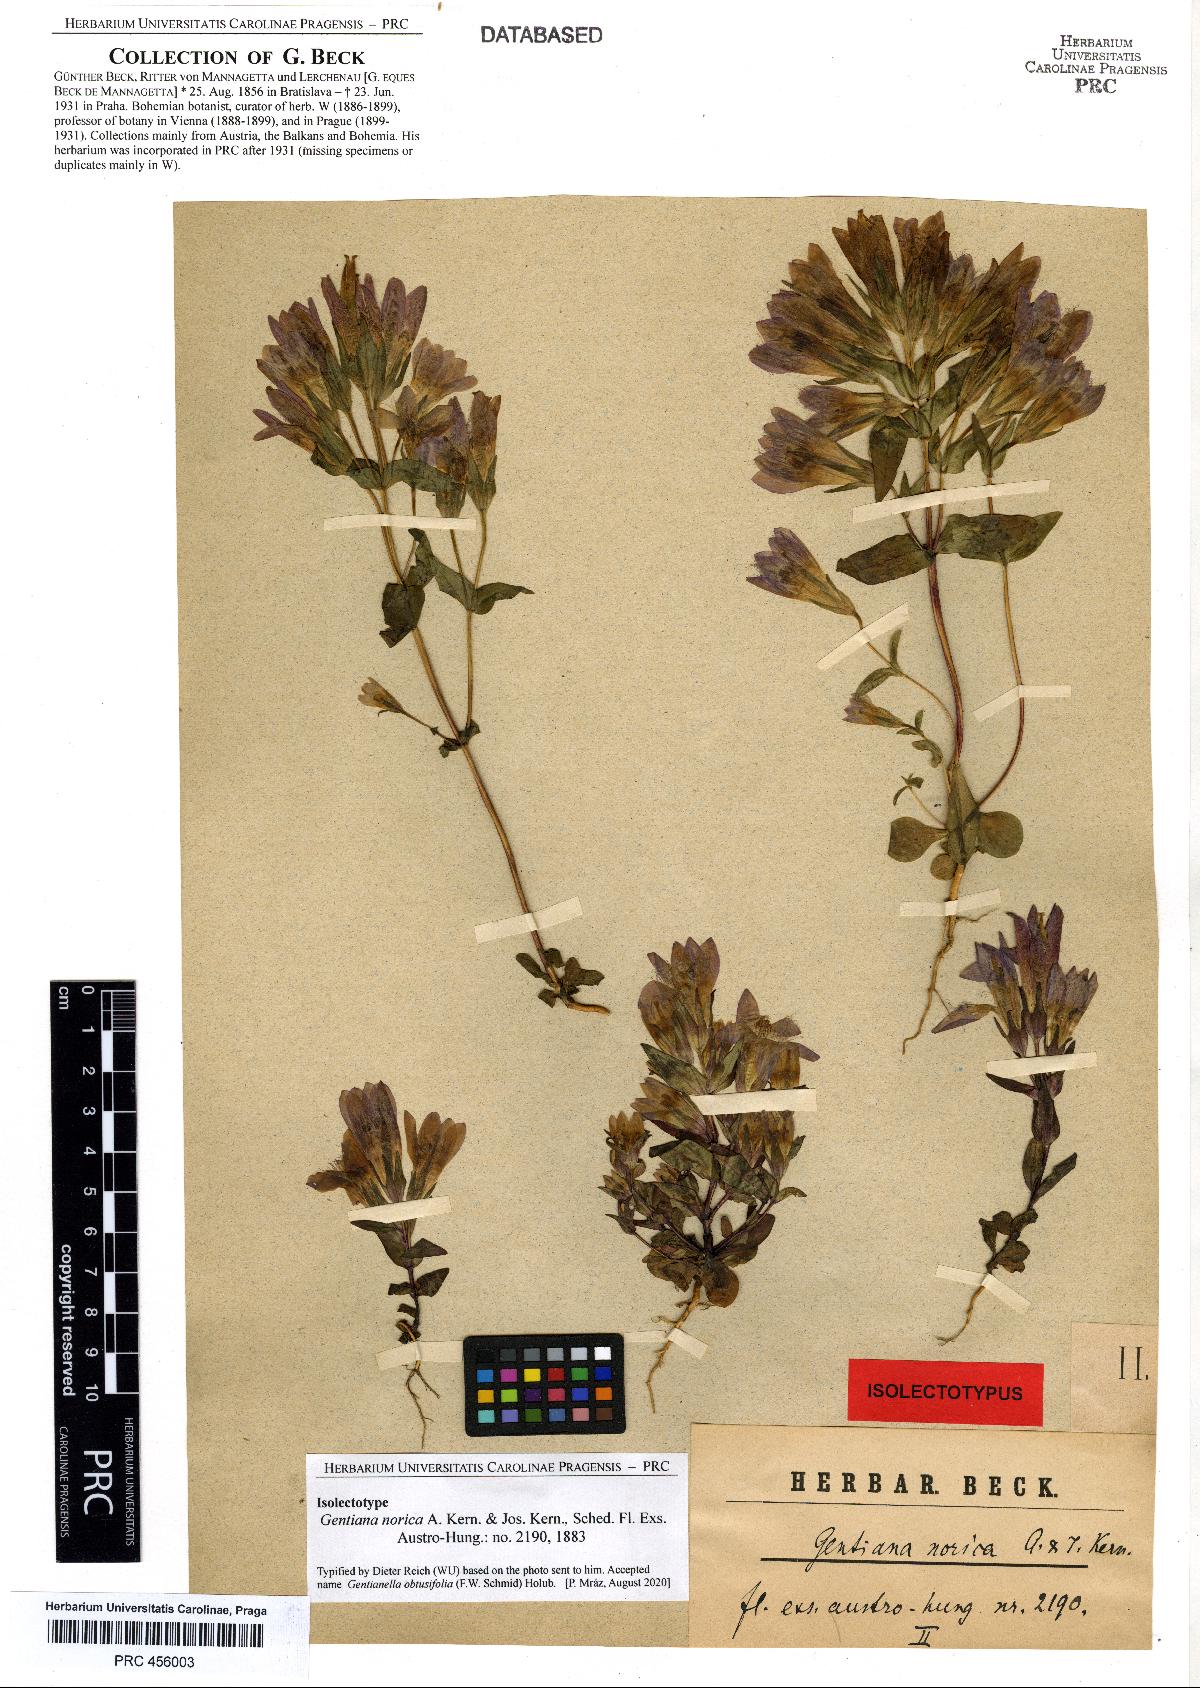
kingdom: Plantae
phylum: Tracheophyta
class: Magnoliopsida
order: Gentianales
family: Gentianaceae
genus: Gentianella
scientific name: Gentianella obtusifolia
